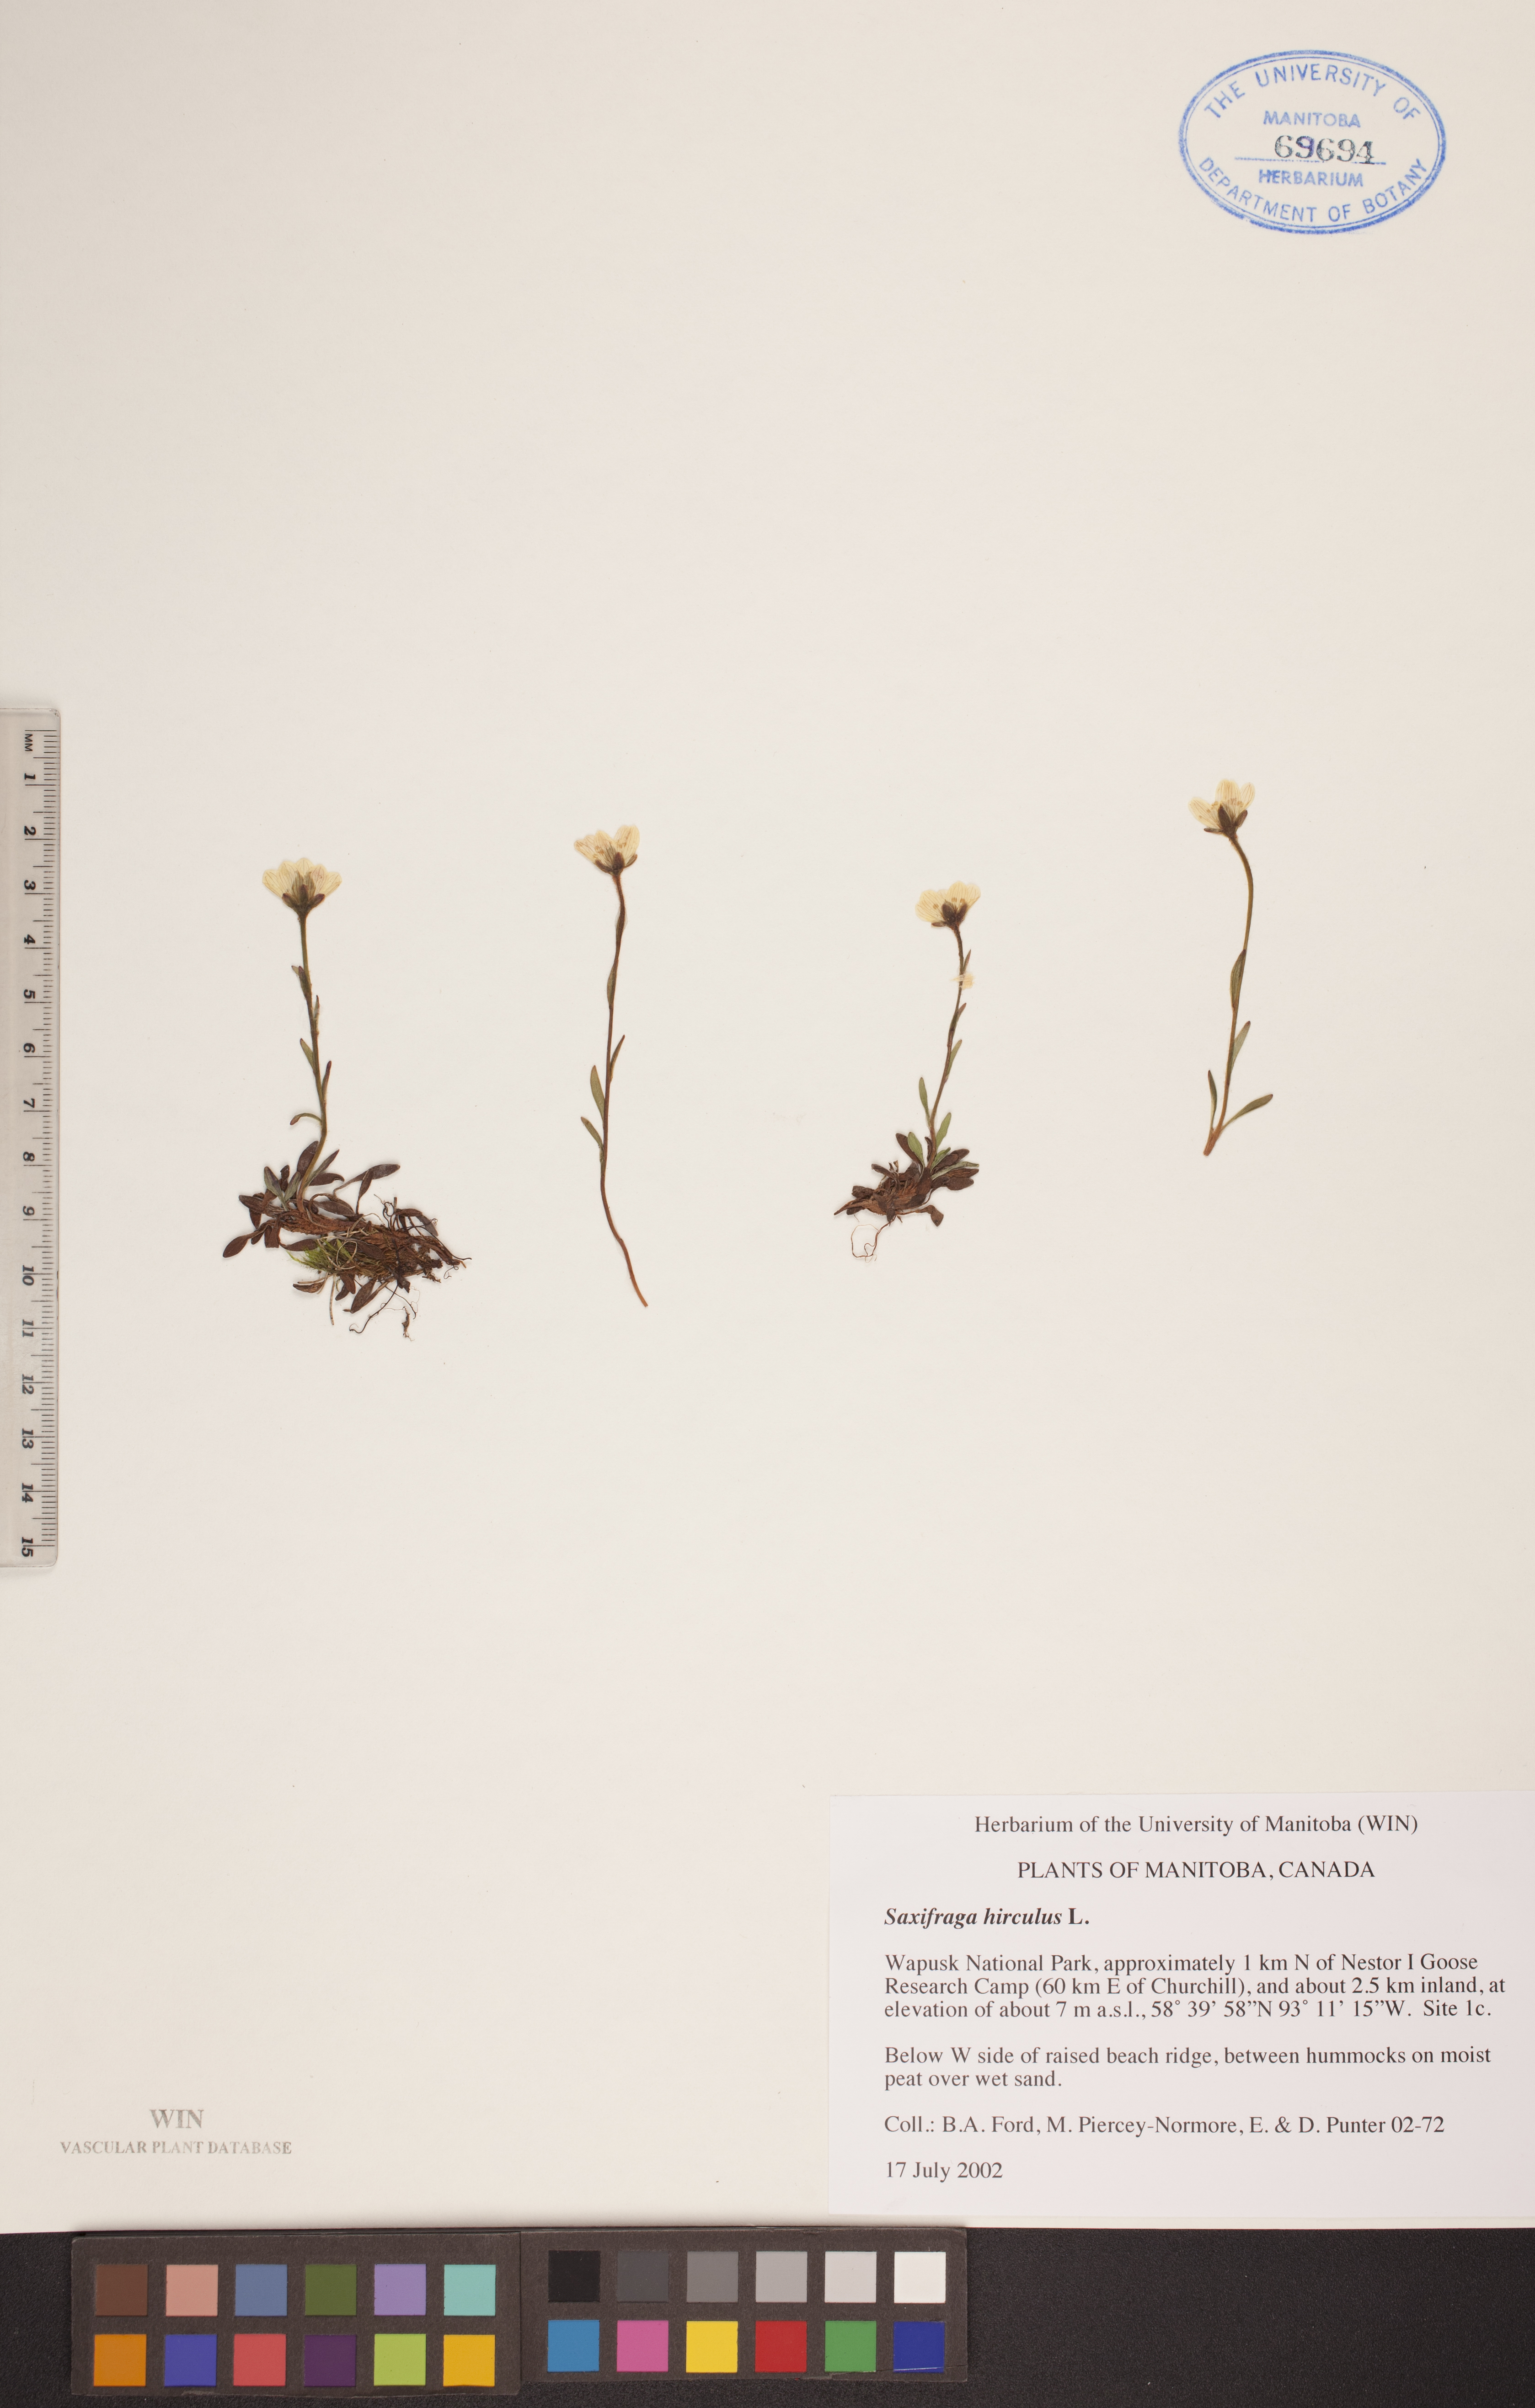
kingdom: Plantae
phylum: Tracheophyta
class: Magnoliopsida
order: Saxifragales
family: Saxifragaceae
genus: Saxifraga
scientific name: Saxifraga hirculus
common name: Yellow marsh saxifrage
